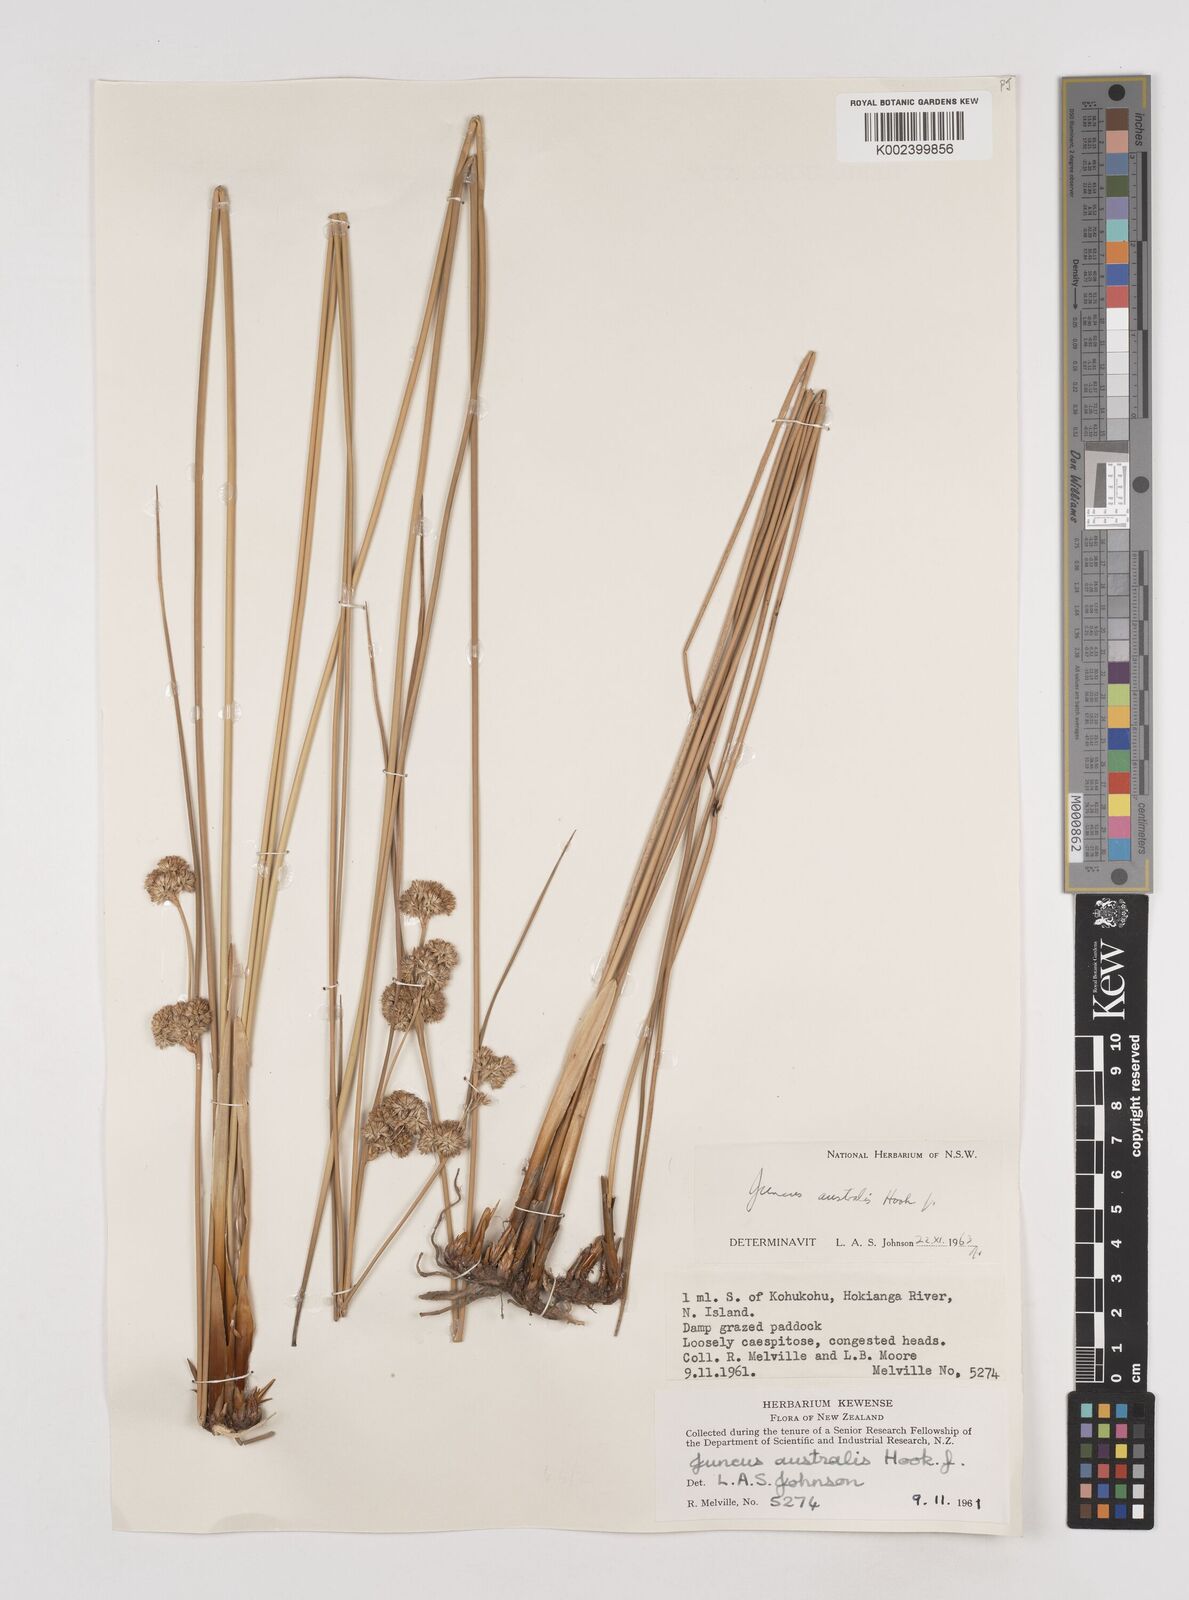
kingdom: Plantae
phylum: Tracheophyta
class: Liliopsida
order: Poales
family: Juncaceae
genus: Juncus
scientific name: Juncus australis
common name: Austral rush
